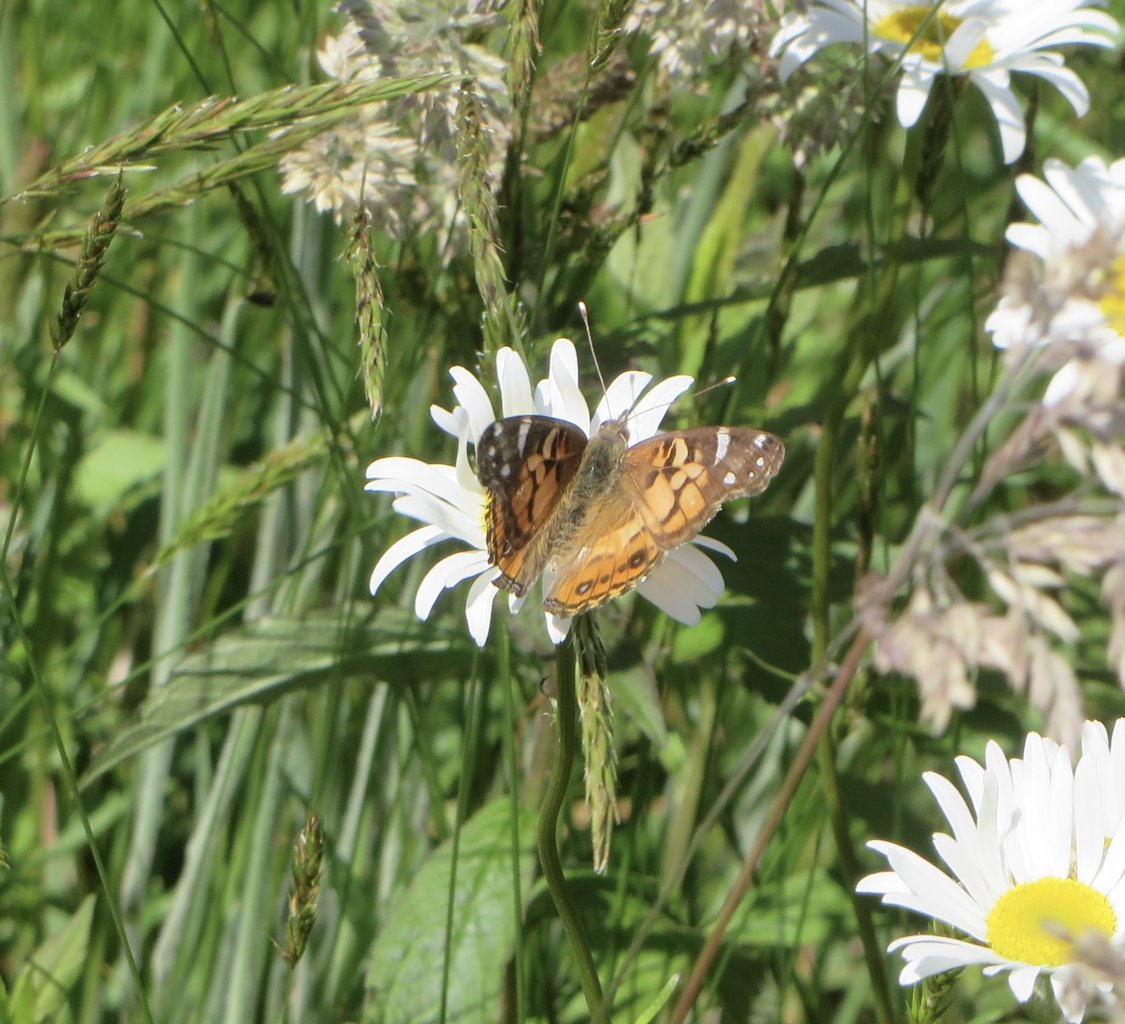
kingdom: Animalia
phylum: Arthropoda
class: Insecta
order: Lepidoptera
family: Nymphalidae
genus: Vanessa
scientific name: Vanessa virginiensis
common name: American Lady
